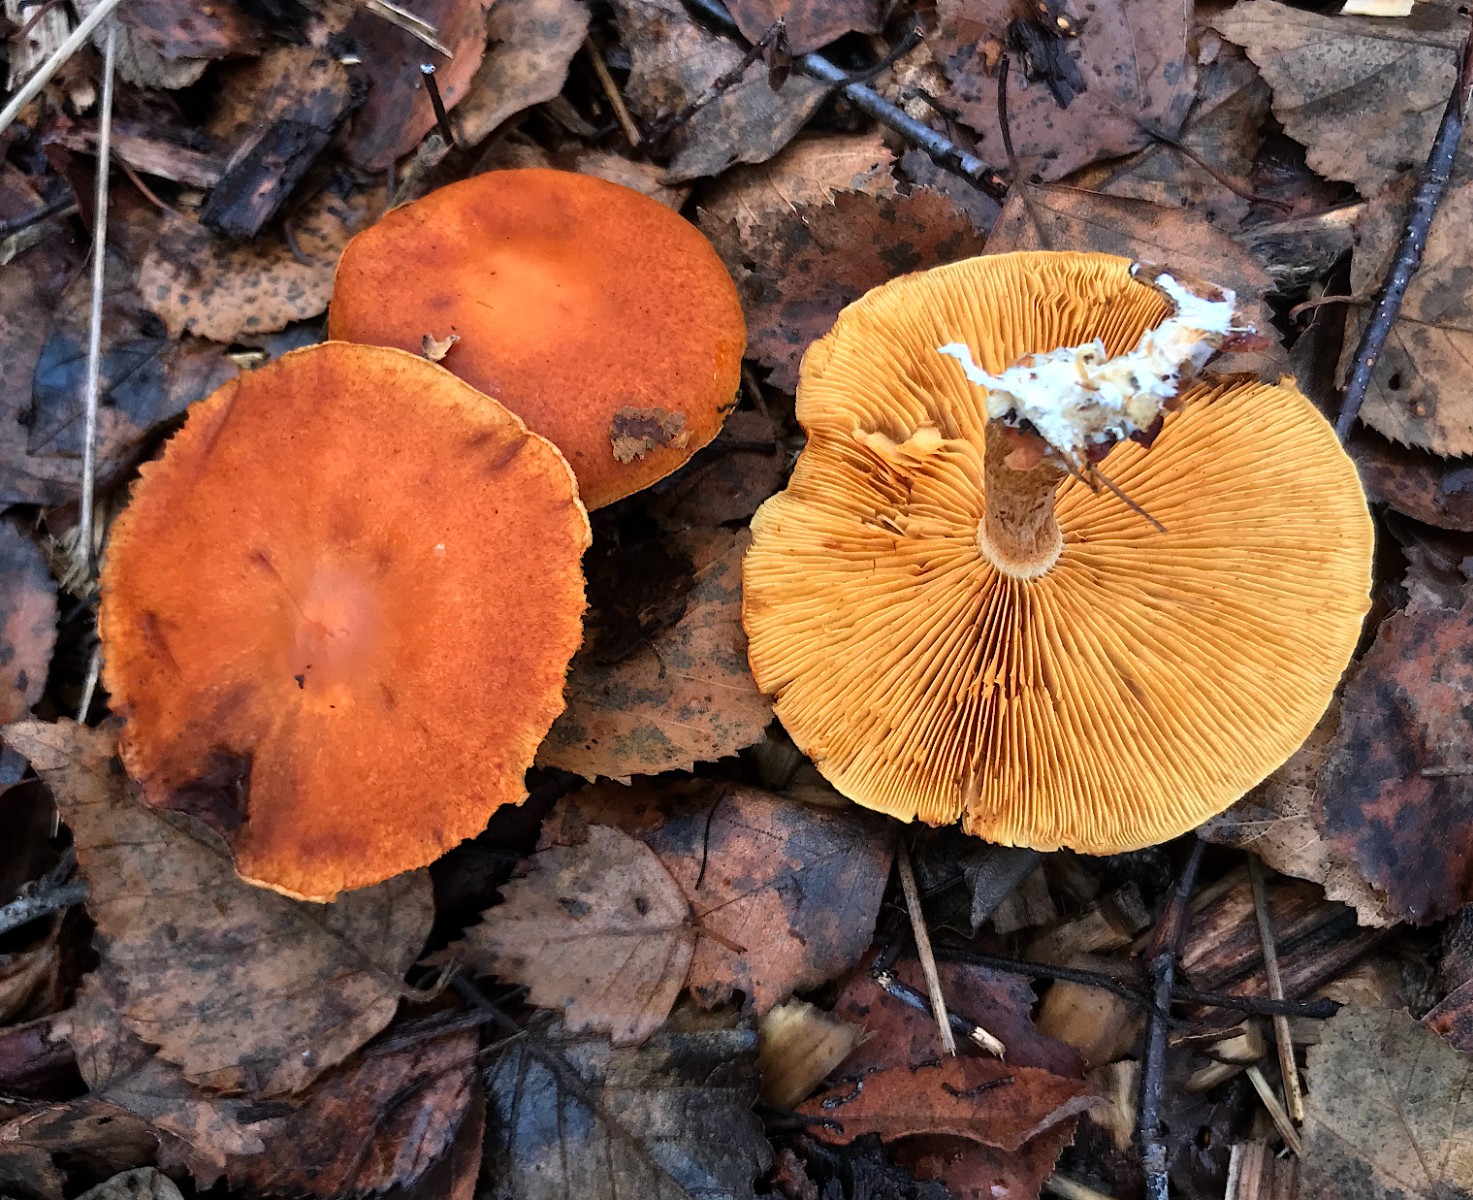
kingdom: Fungi
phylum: Basidiomycota
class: Agaricomycetes
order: Agaricales
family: Hymenogastraceae
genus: Gymnopilus
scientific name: Gymnopilus penetrans
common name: plettet flammehat
